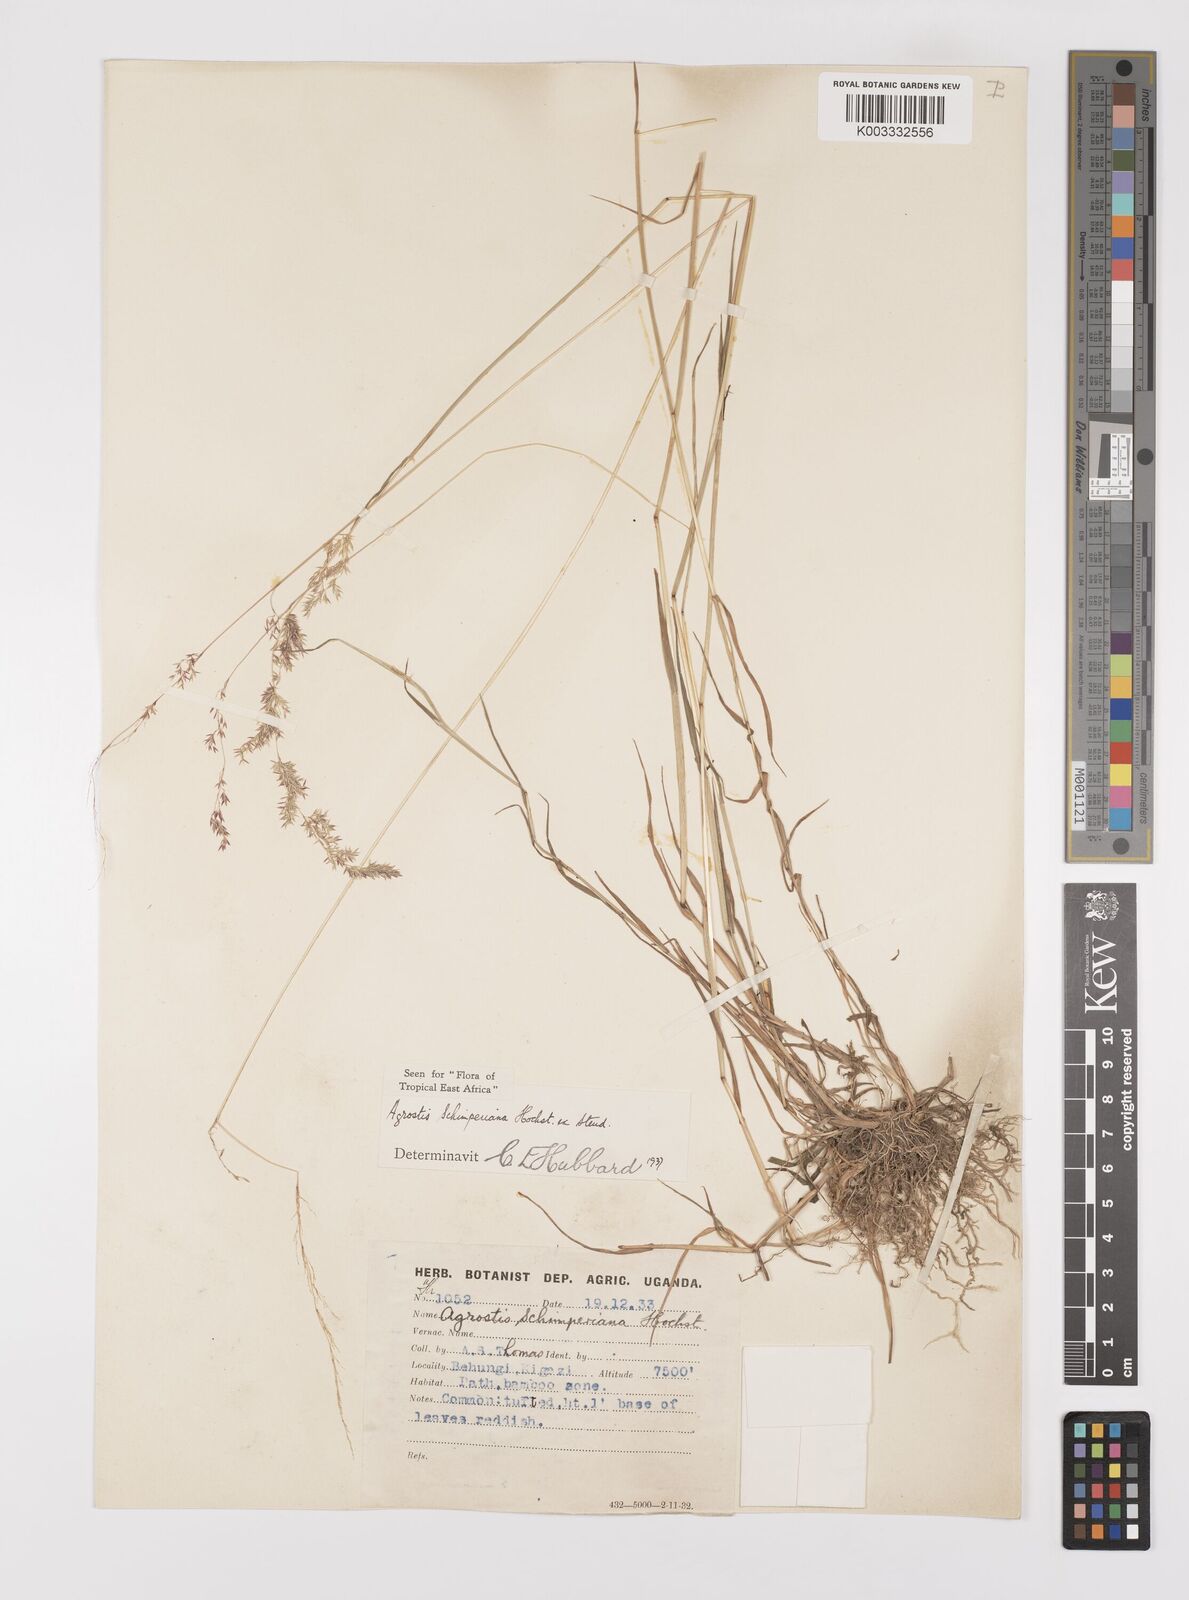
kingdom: Plantae
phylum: Tracheophyta
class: Liliopsida
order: Poales
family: Poaceae
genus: Polypogon
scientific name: Polypogon schimperianus
